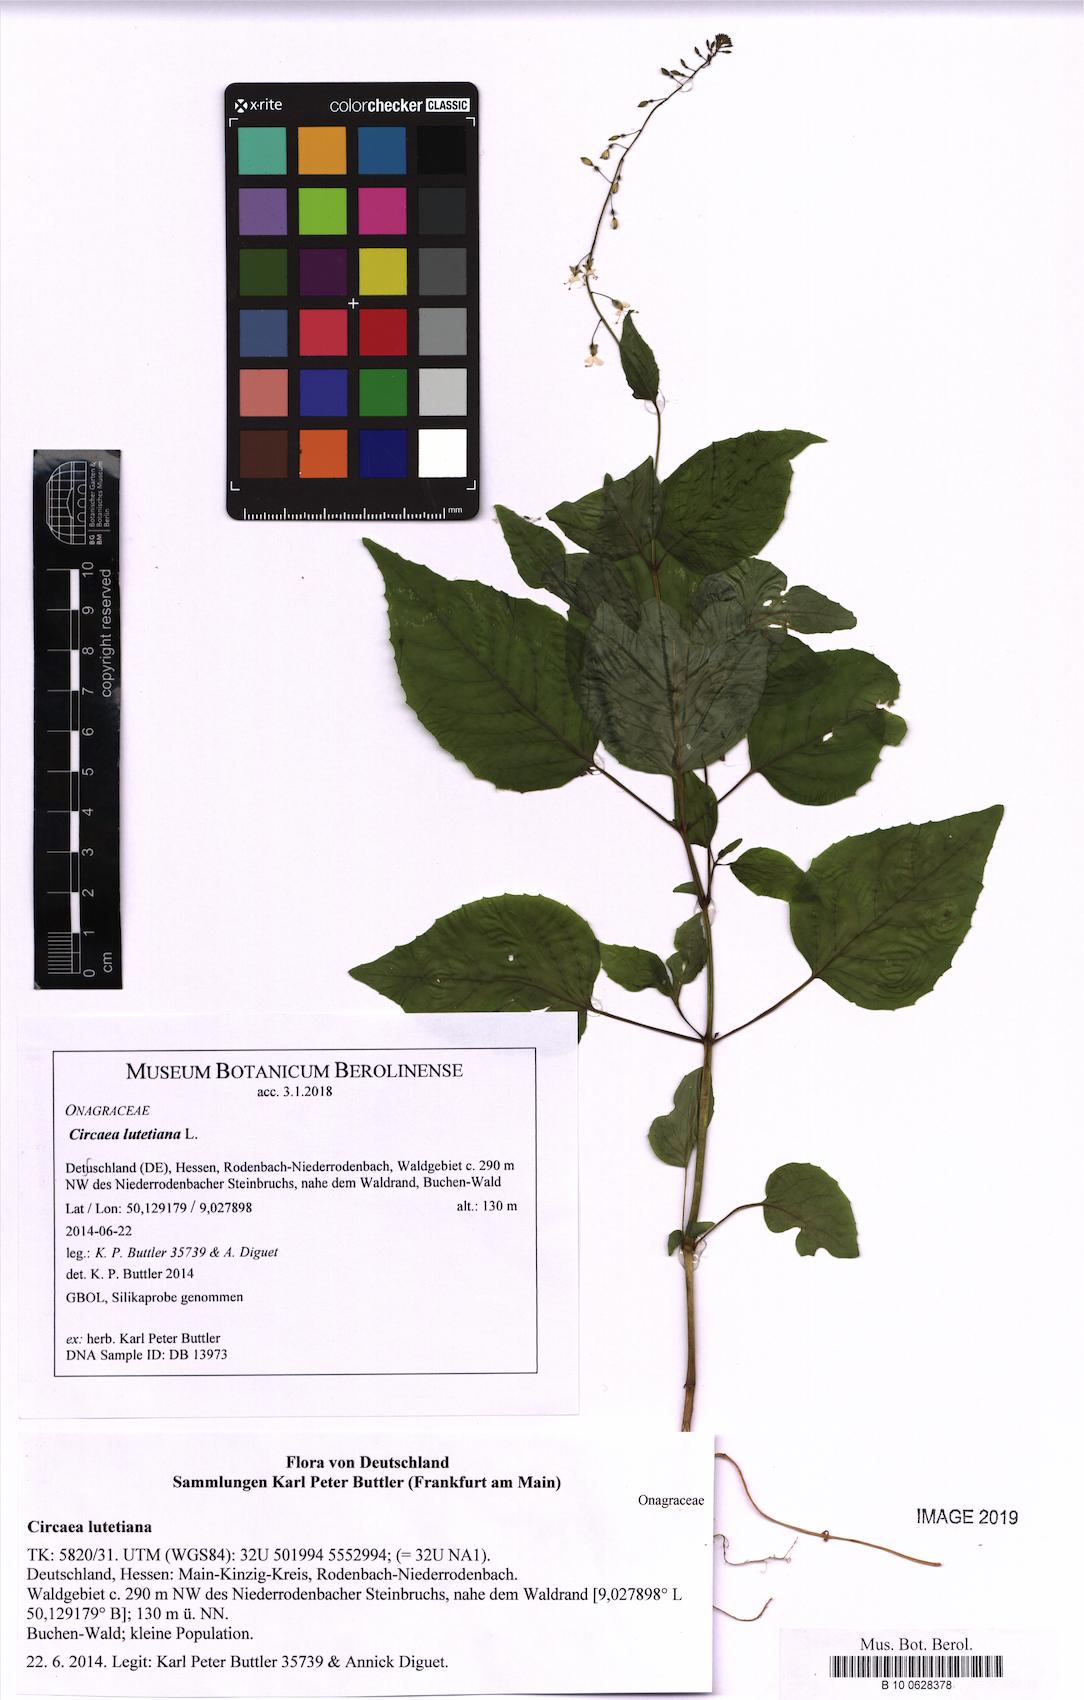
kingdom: Plantae
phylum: Tracheophyta
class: Magnoliopsida
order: Myrtales
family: Onagraceae
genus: Circaea
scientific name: Circaea lutetiana
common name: Enchanter's-nightshade
